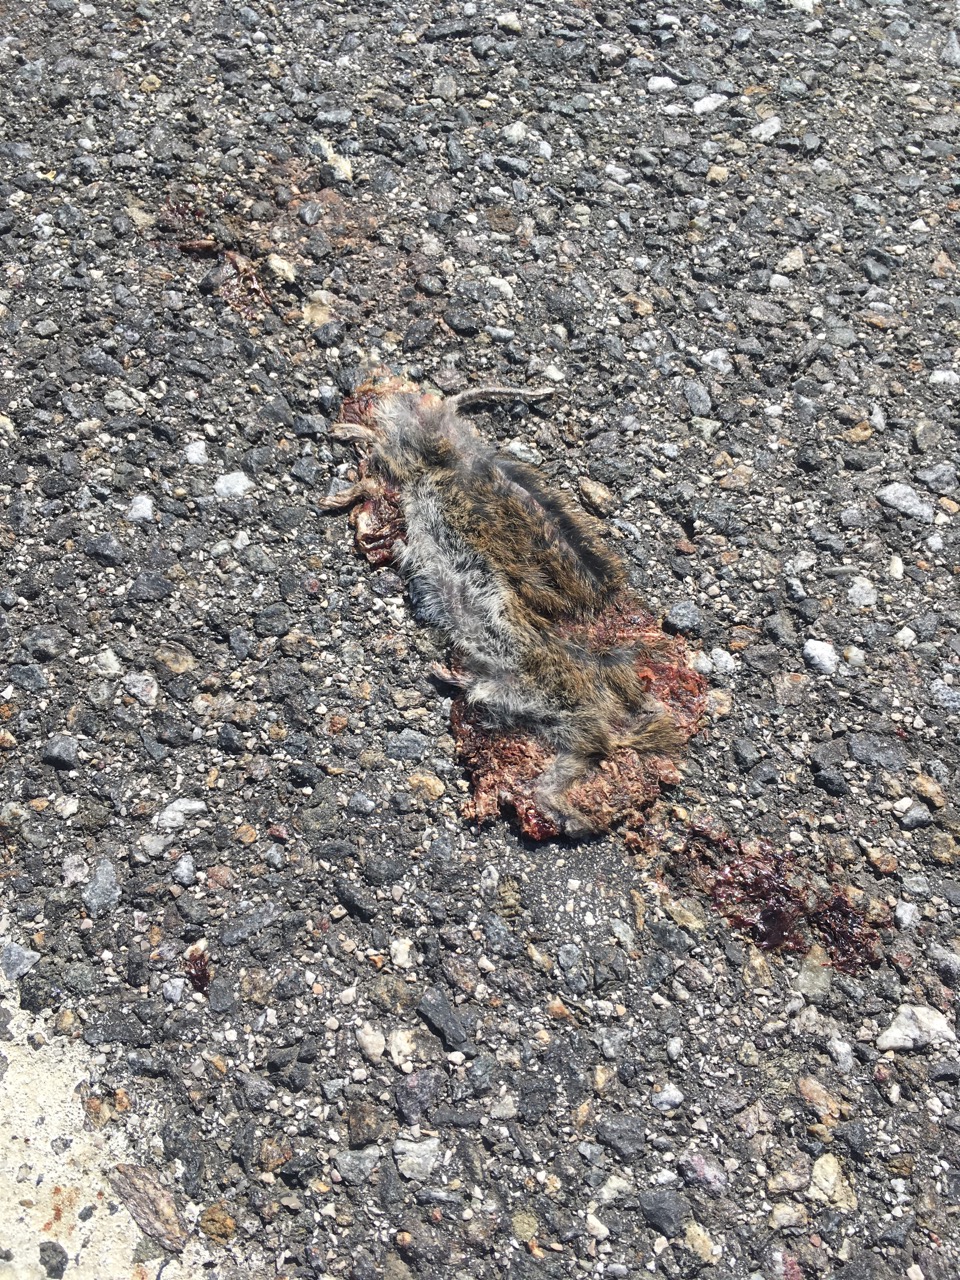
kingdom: Animalia
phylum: Chordata
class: Mammalia
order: Rodentia
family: Cricetidae
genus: Microtus
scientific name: Microtus
